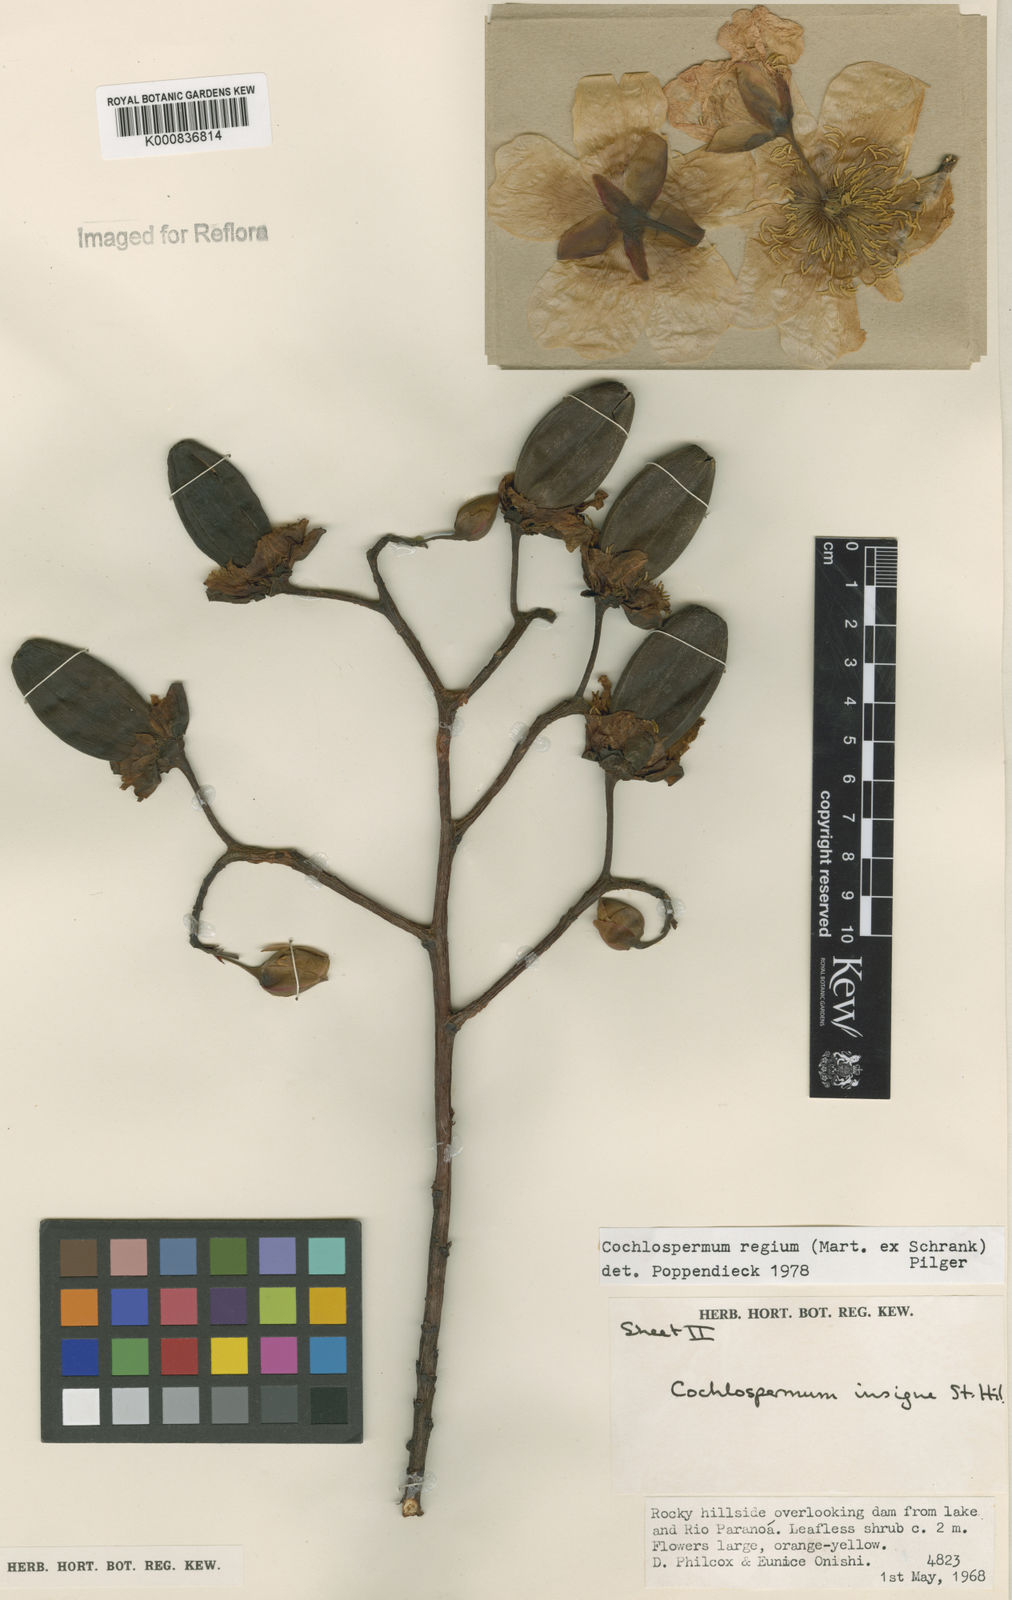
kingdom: Plantae
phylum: Tracheophyta
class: Magnoliopsida
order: Malvales
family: Cochlospermaceae
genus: Cochlospermum
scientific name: Cochlospermum regium
